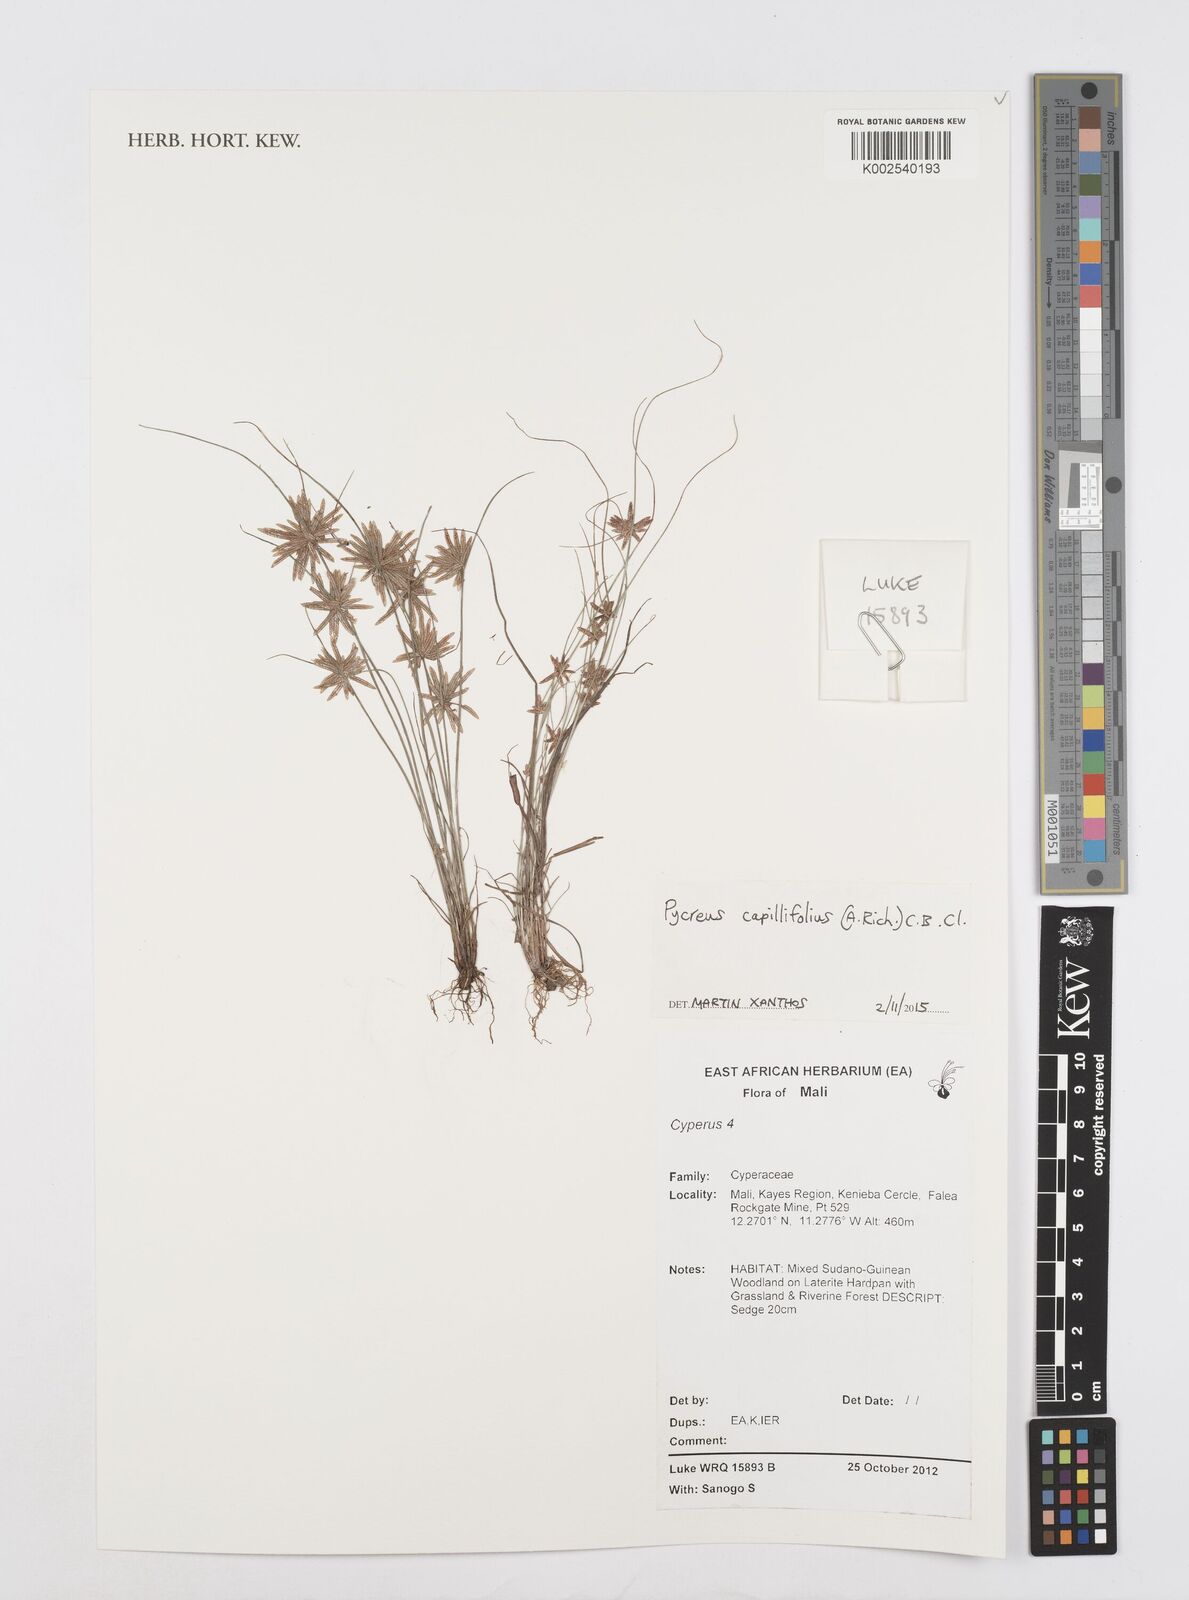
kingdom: Plantae
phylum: Tracheophyta
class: Liliopsida
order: Poales
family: Cyperaceae
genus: Cyperus
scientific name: Cyperus capillifolius
